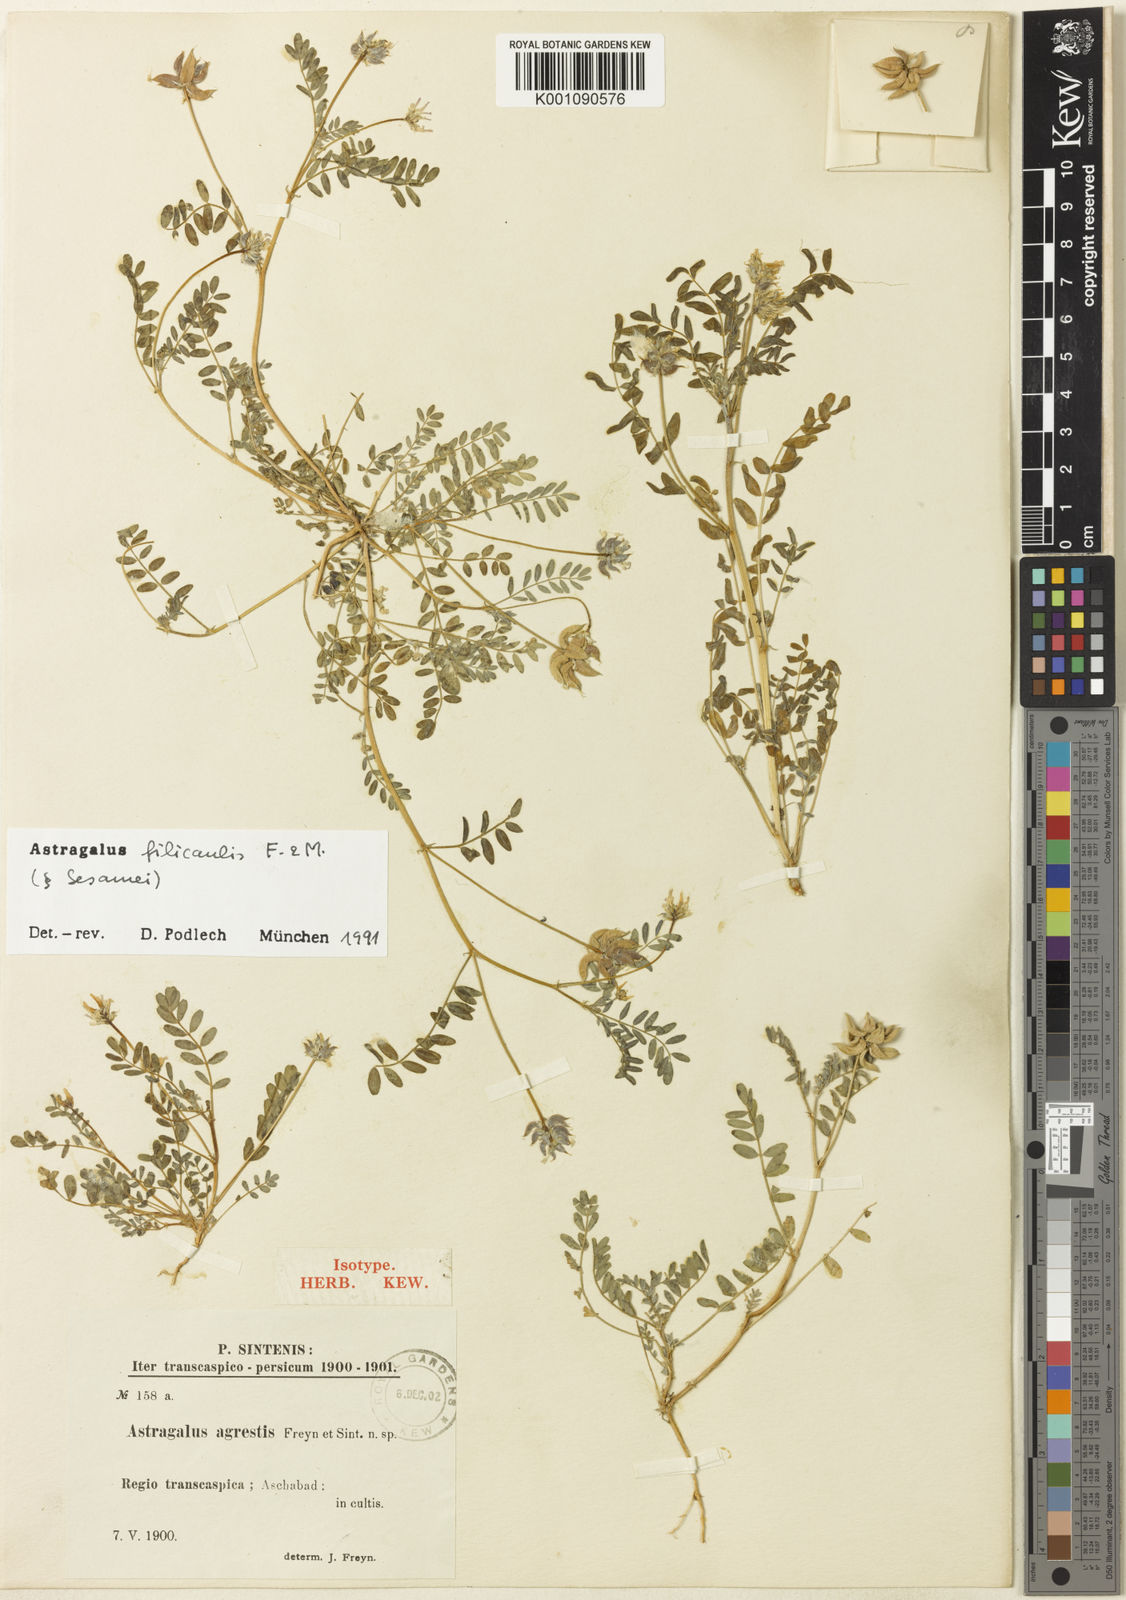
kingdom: Plantae
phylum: Tracheophyta
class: Magnoliopsida
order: Fabales
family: Fabaceae
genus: Astragalus
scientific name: Astragalus
